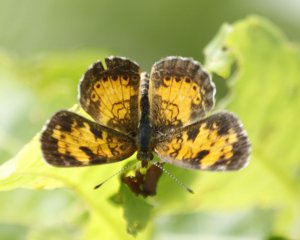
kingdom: Animalia
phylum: Arthropoda
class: Insecta
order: Lepidoptera
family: Nymphalidae
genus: Phyciodes
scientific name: Phyciodes tharos
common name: Northern Crescent
